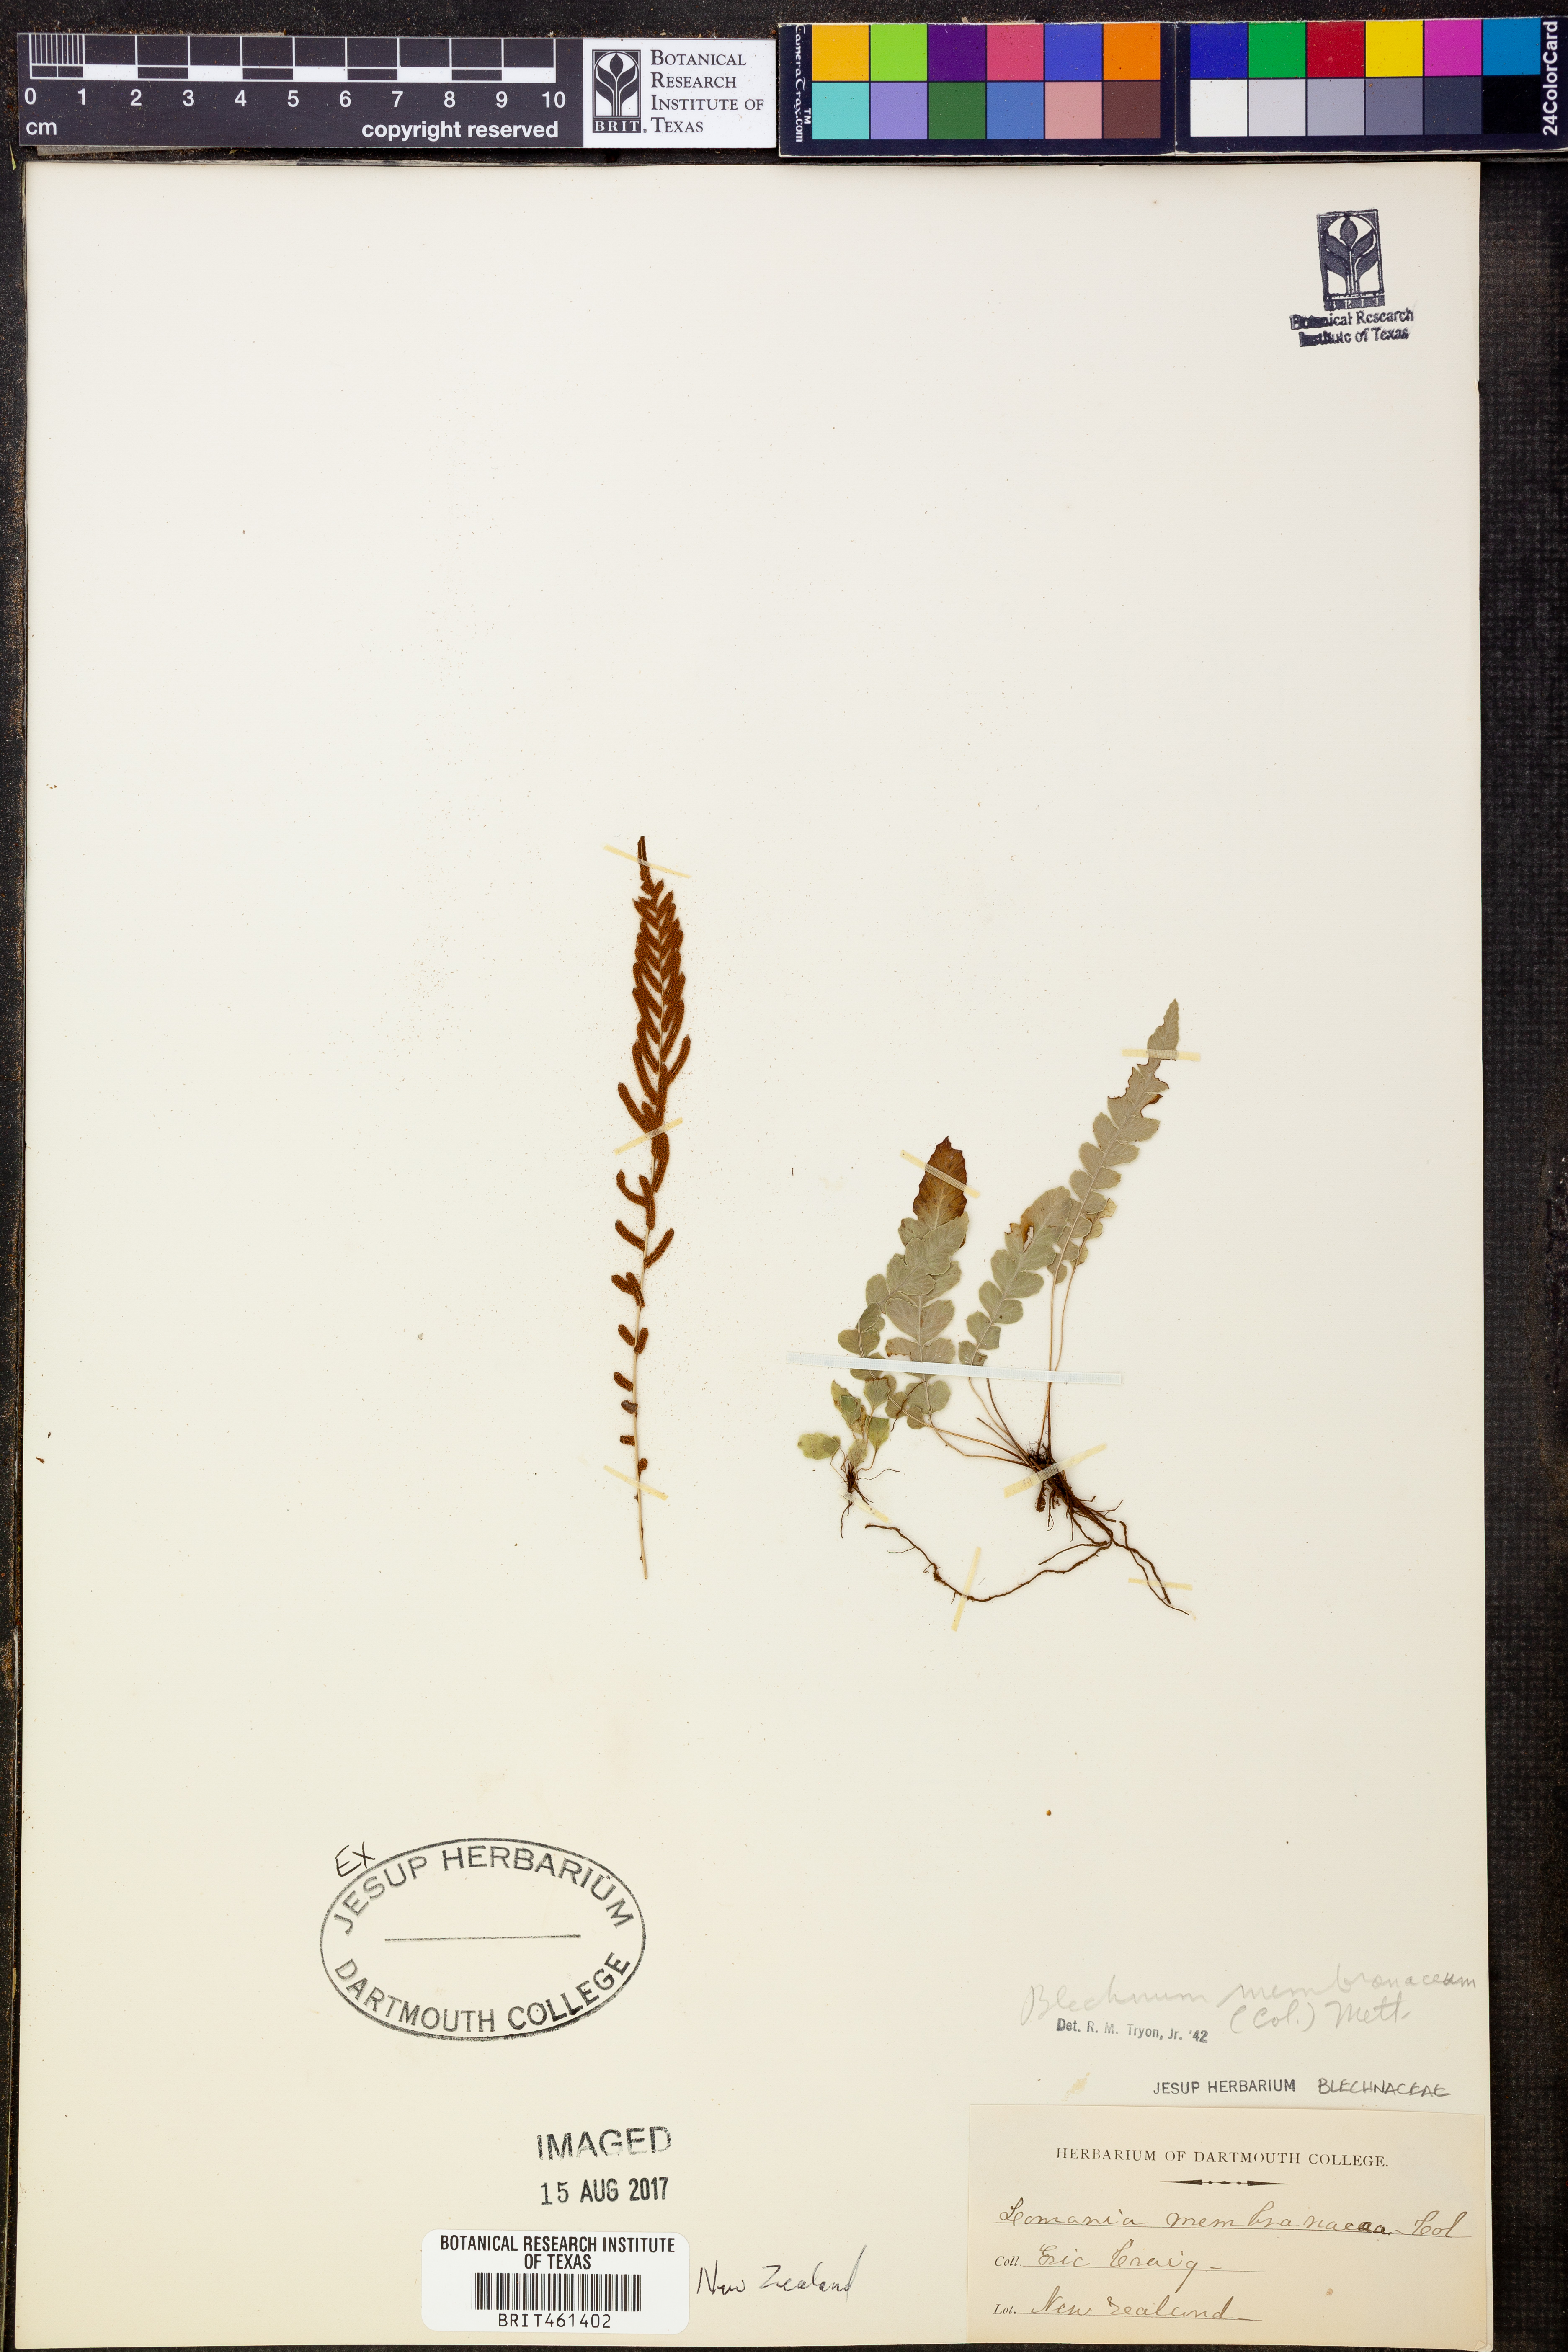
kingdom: Plantae
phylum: Tracheophyta
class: Polypodiopsida
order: Polypodiales
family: Blechnaceae
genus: Austroblechnum
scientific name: Austroblechnum membranaceum
